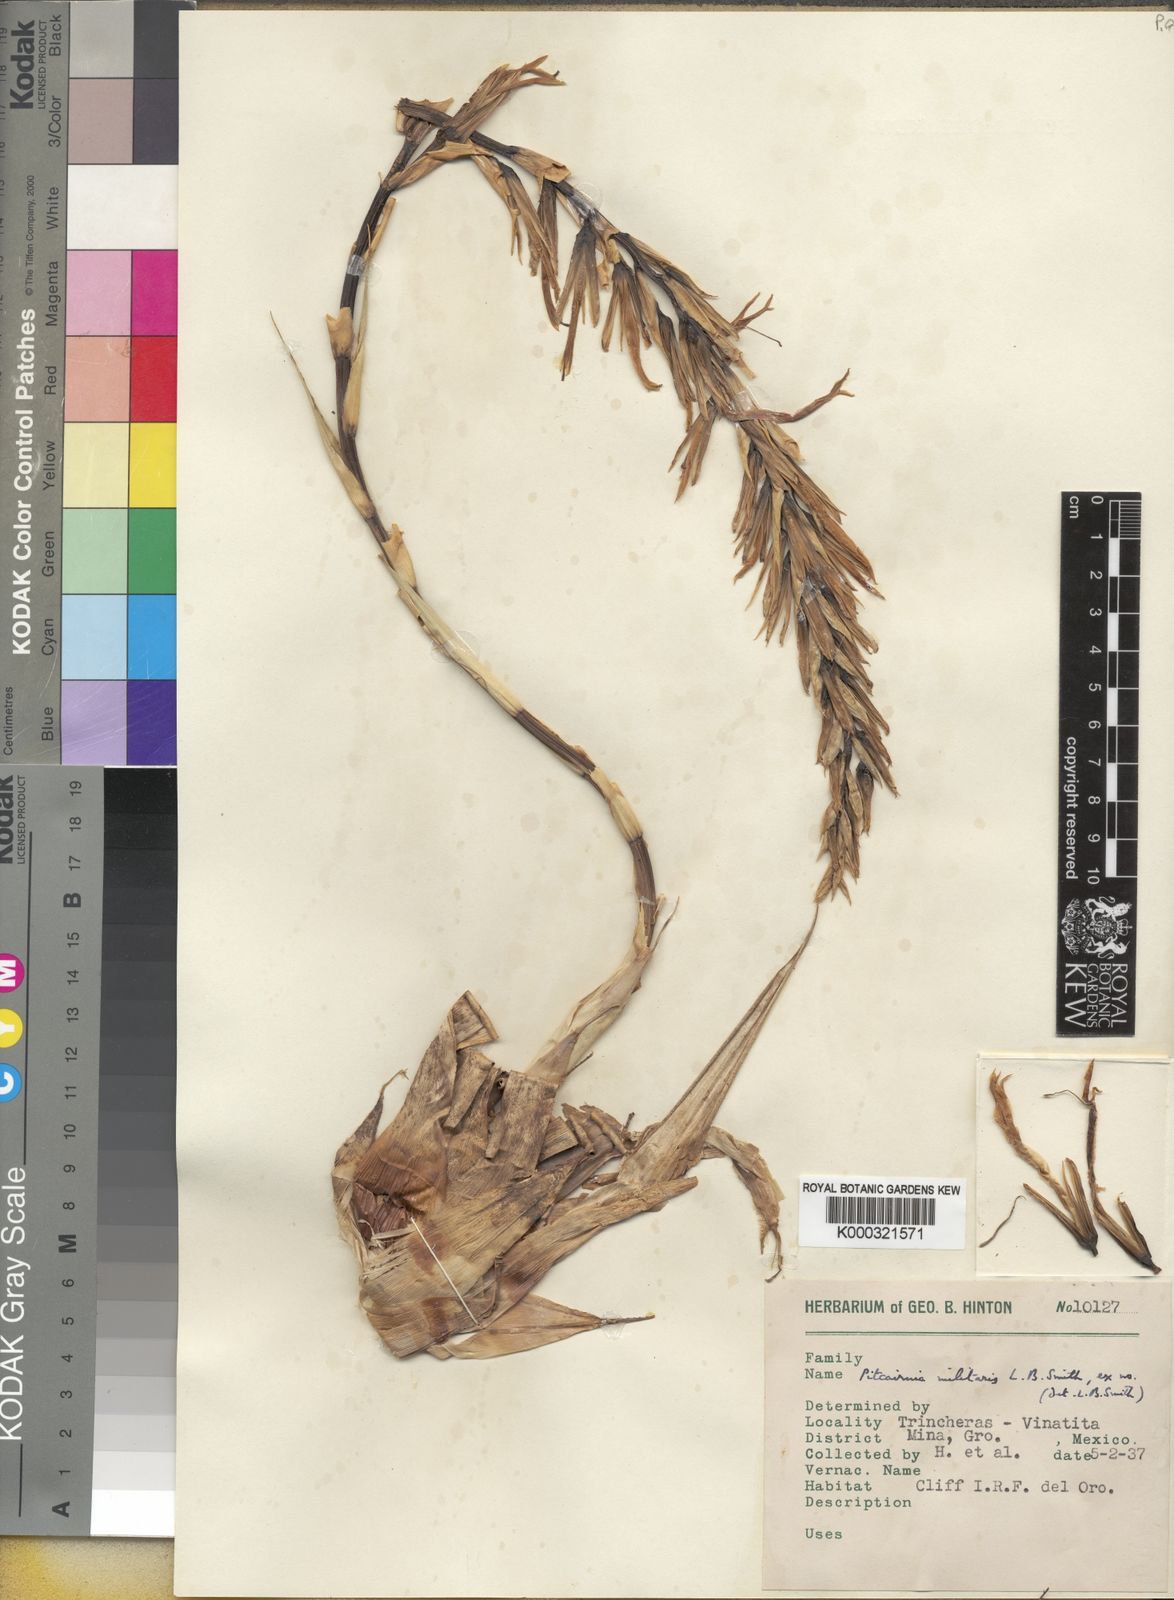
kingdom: Plantae
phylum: Tracheophyta
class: Liliopsida
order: Poales
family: Bromeliaceae
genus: Pitcairnia
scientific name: Pitcairnia pteropoda
